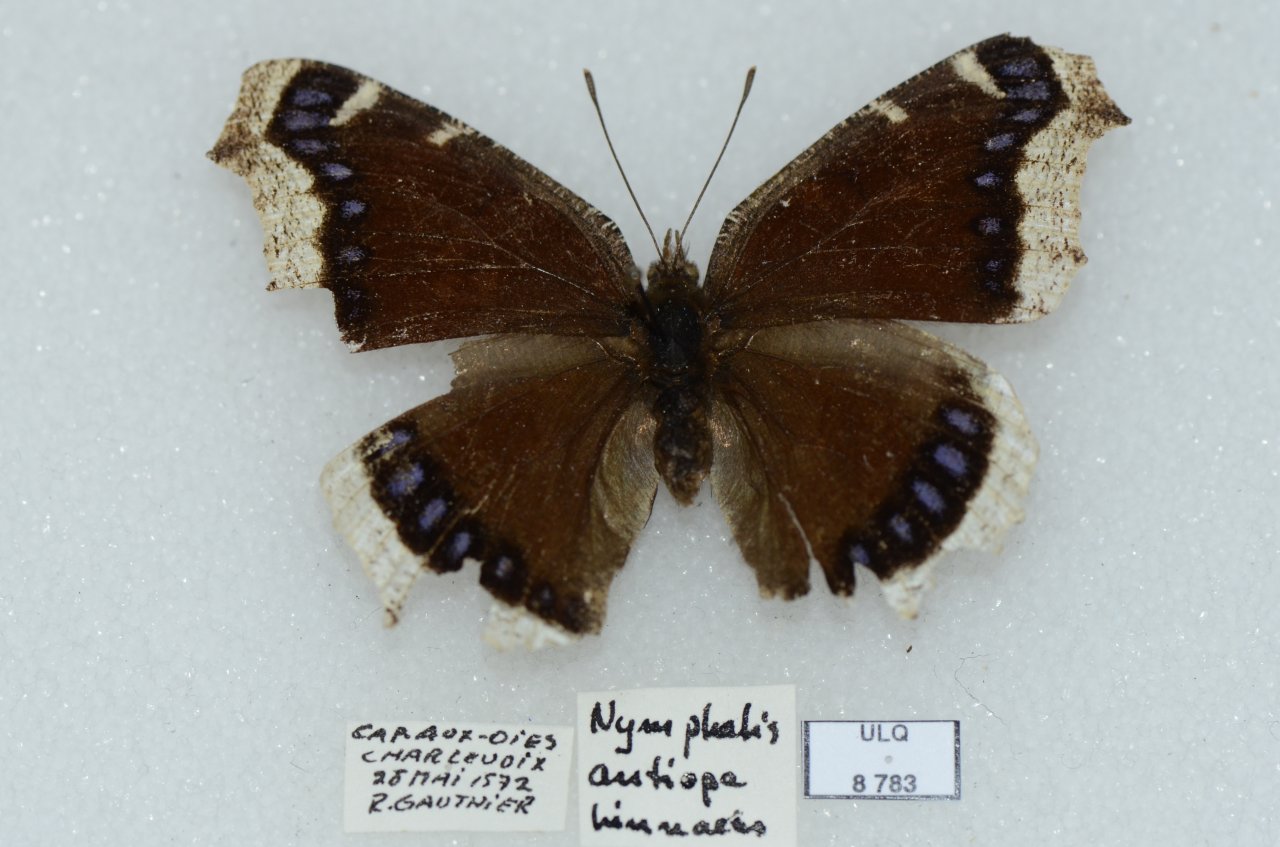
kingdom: Animalia
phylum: Arthropoda
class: Insecta
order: Lepidoptera
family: Nymphalidae
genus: Nymphalis
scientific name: Nymphalis antiopa
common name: Mourning Cloak
